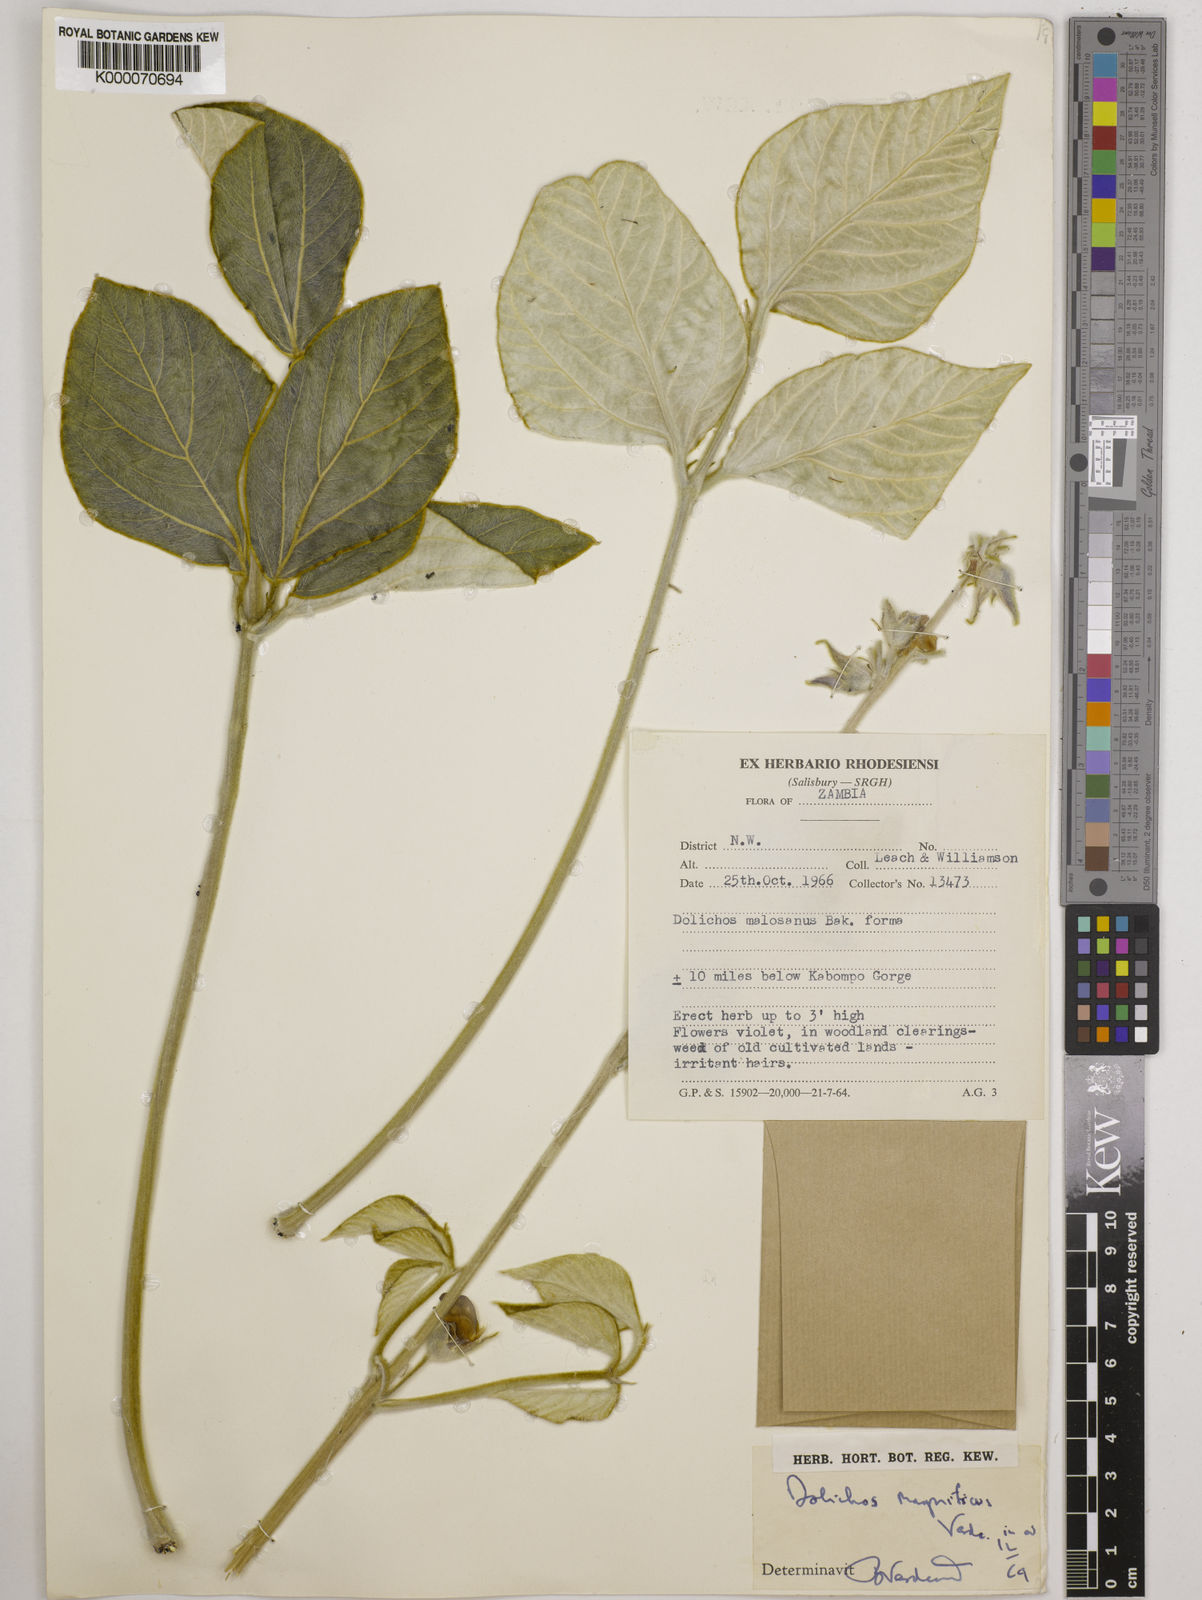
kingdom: Plantae
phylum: Tracheophyta
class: Magnoliopsida
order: Fabales
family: Fabaceae
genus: Dolichos
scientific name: Dolichos magnificus
